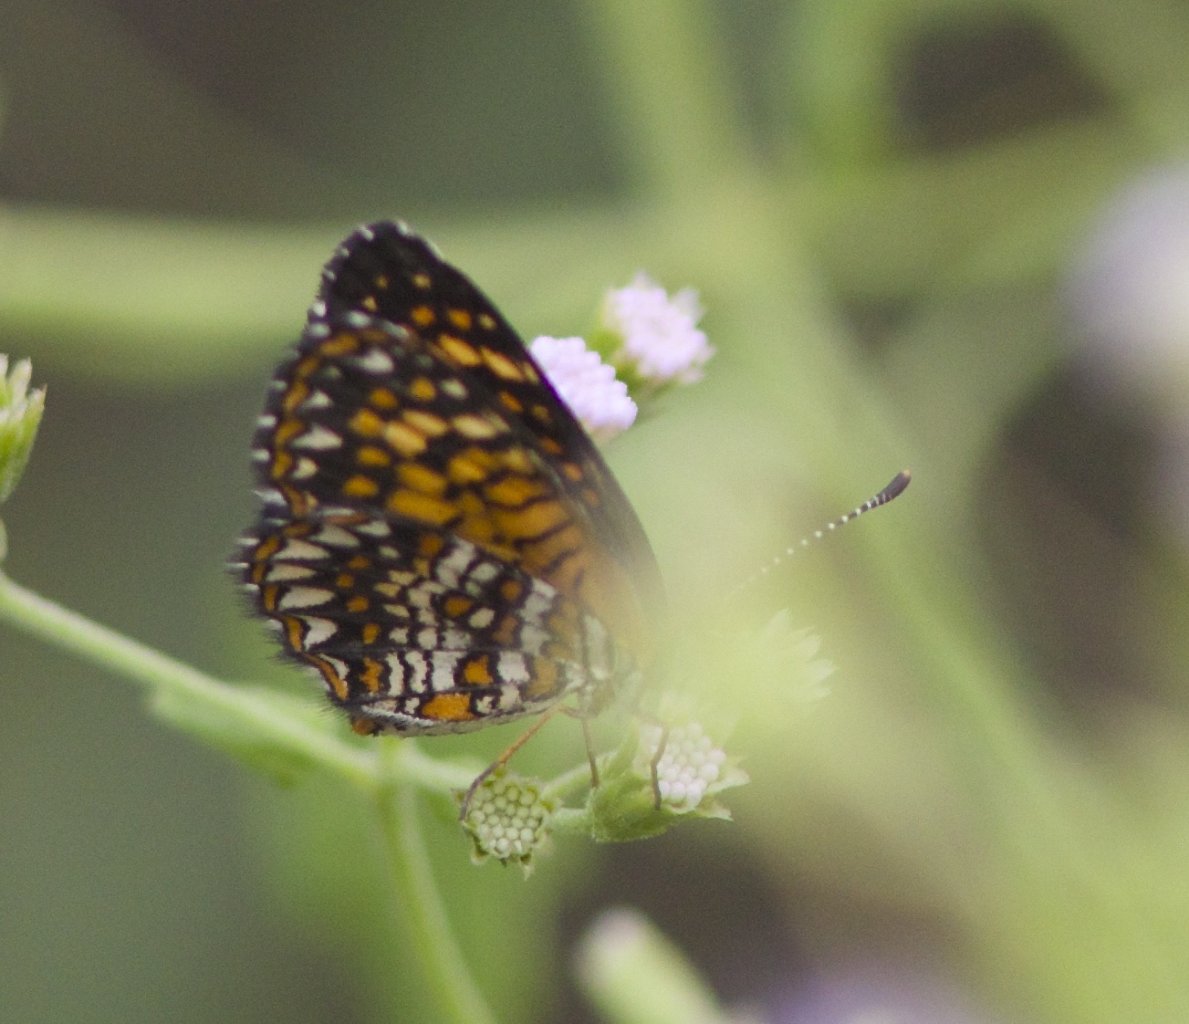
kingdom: Animalia
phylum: Arthropoda
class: Insecta
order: Lepidoptera
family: Nymphalidae
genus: Texola
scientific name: Texola elada
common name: Elada Checkerspot
